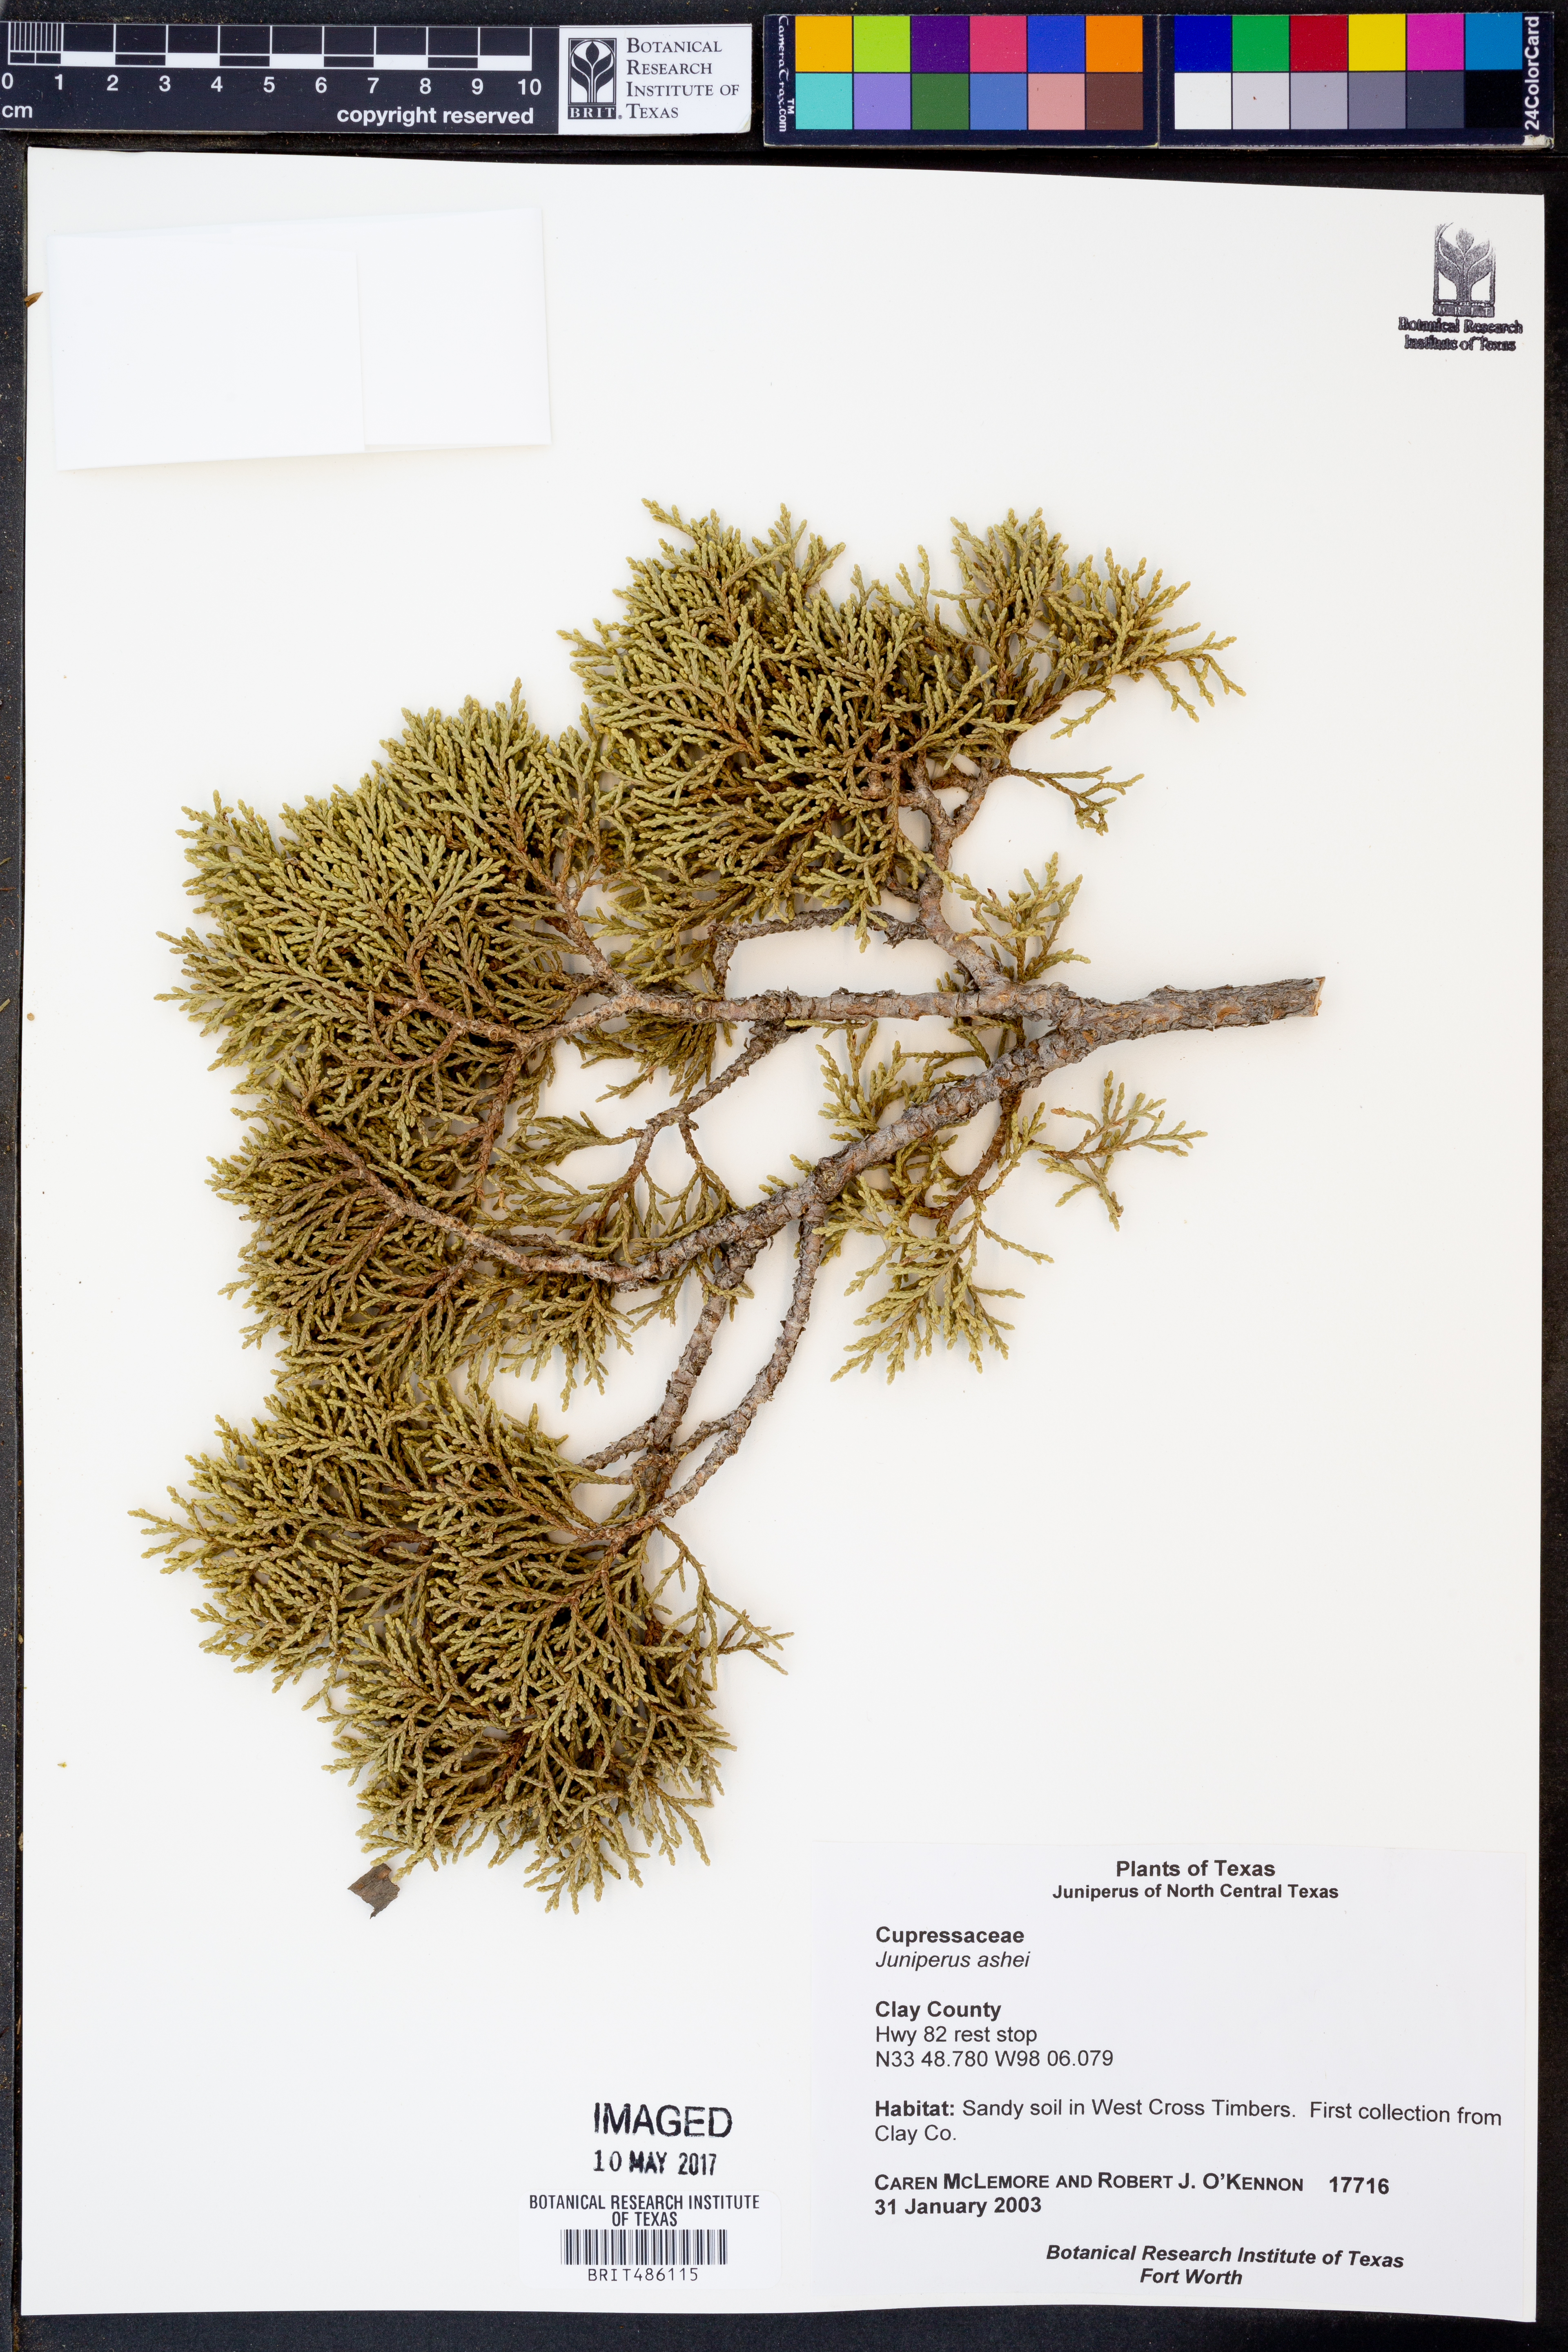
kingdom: Plantae
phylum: Tracheophyta
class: Pinopsida
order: Pinales
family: Cupressaceae
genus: Juniperus
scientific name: Juniperus ashei
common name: Mexican juniper
